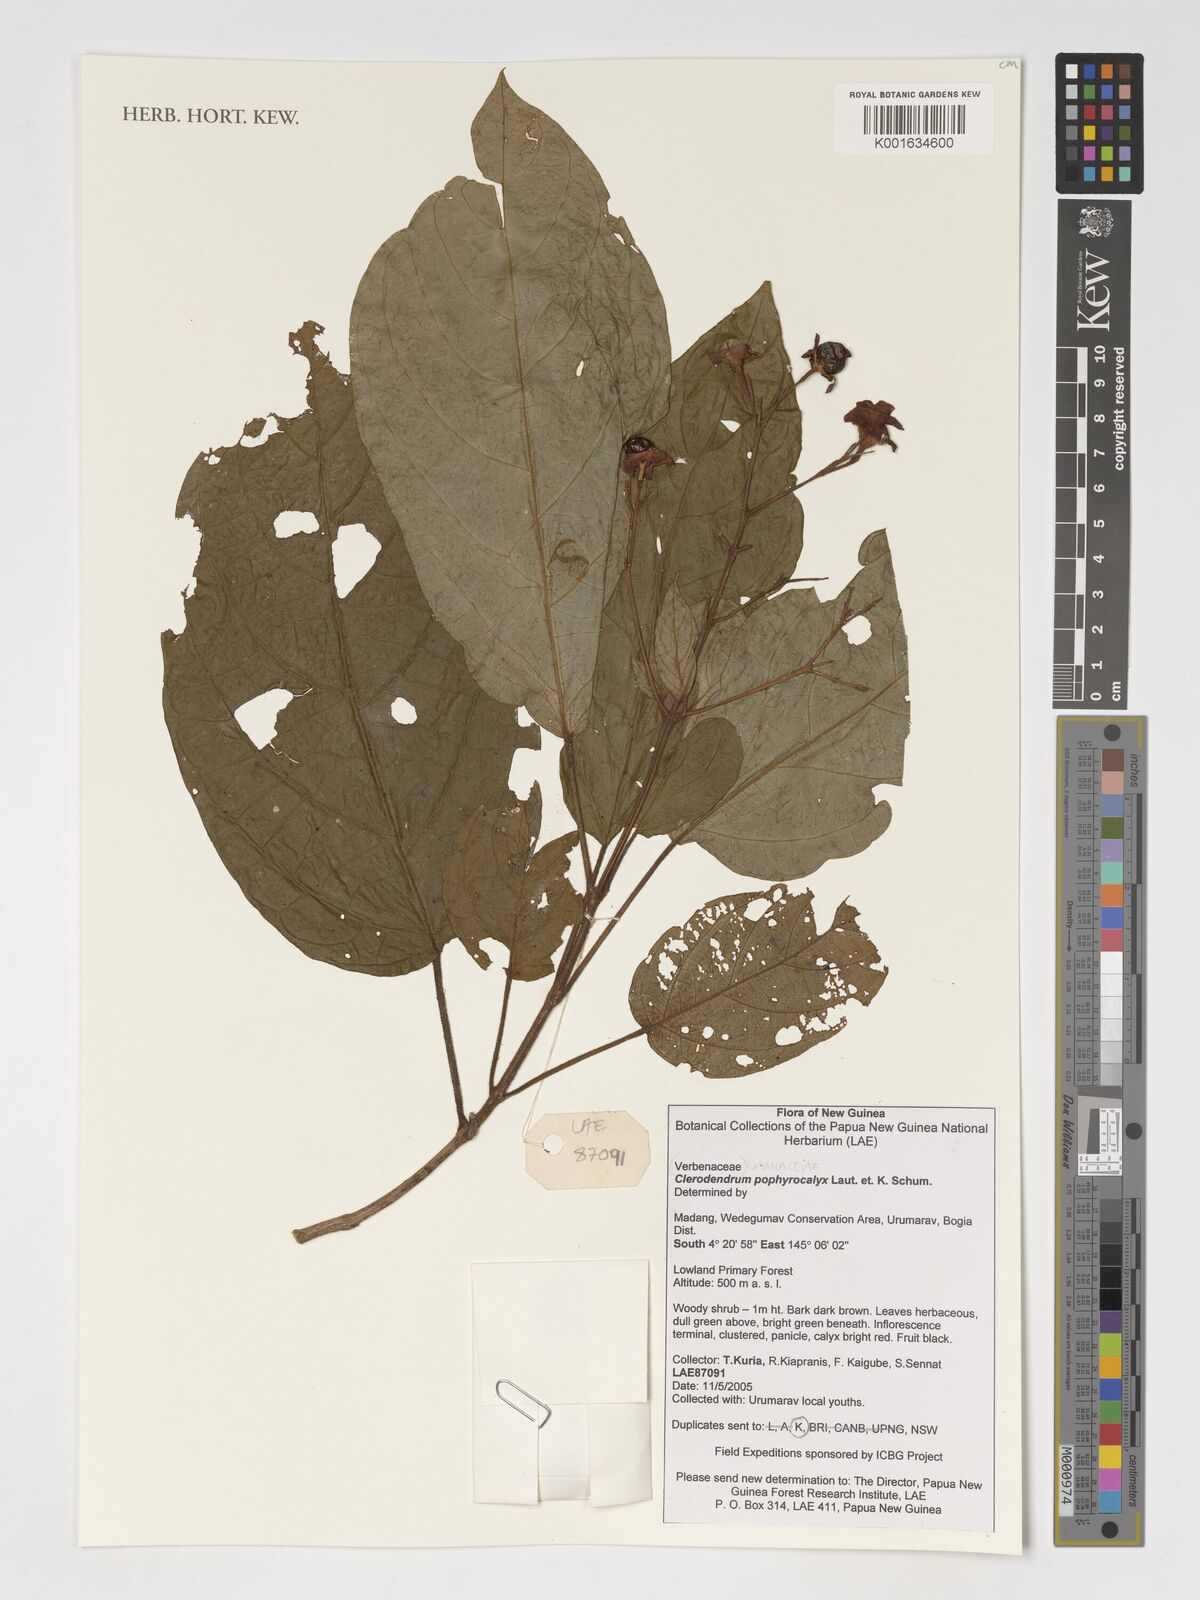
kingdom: Plantae
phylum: Tracheophyta
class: Magnoliopsida
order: Lamiales
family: Lamiaceae
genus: Clerodendrum
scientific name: Clerodendrum porphyrocalyx
